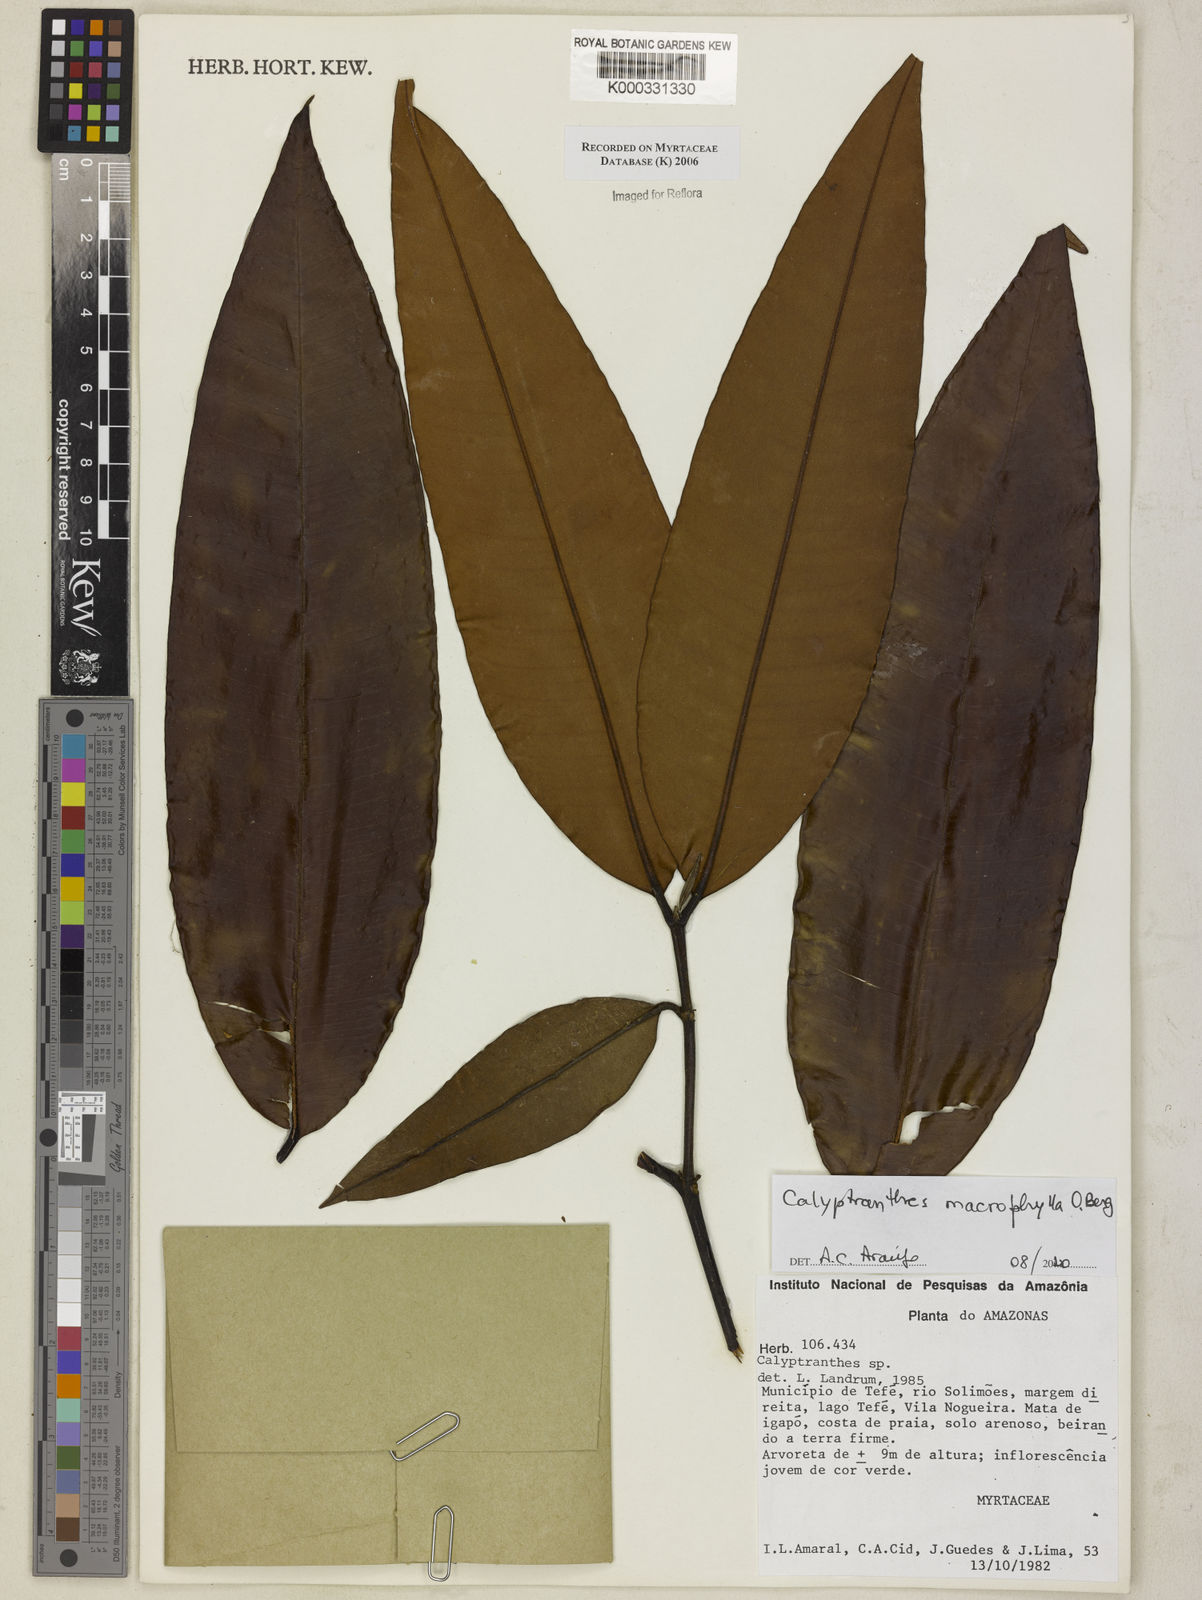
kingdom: Plantae
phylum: Tracheophyta
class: Magnoliopsida
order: Myrtales
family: Myrtaceae
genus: Calyptranthes
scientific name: Calyptranthes
